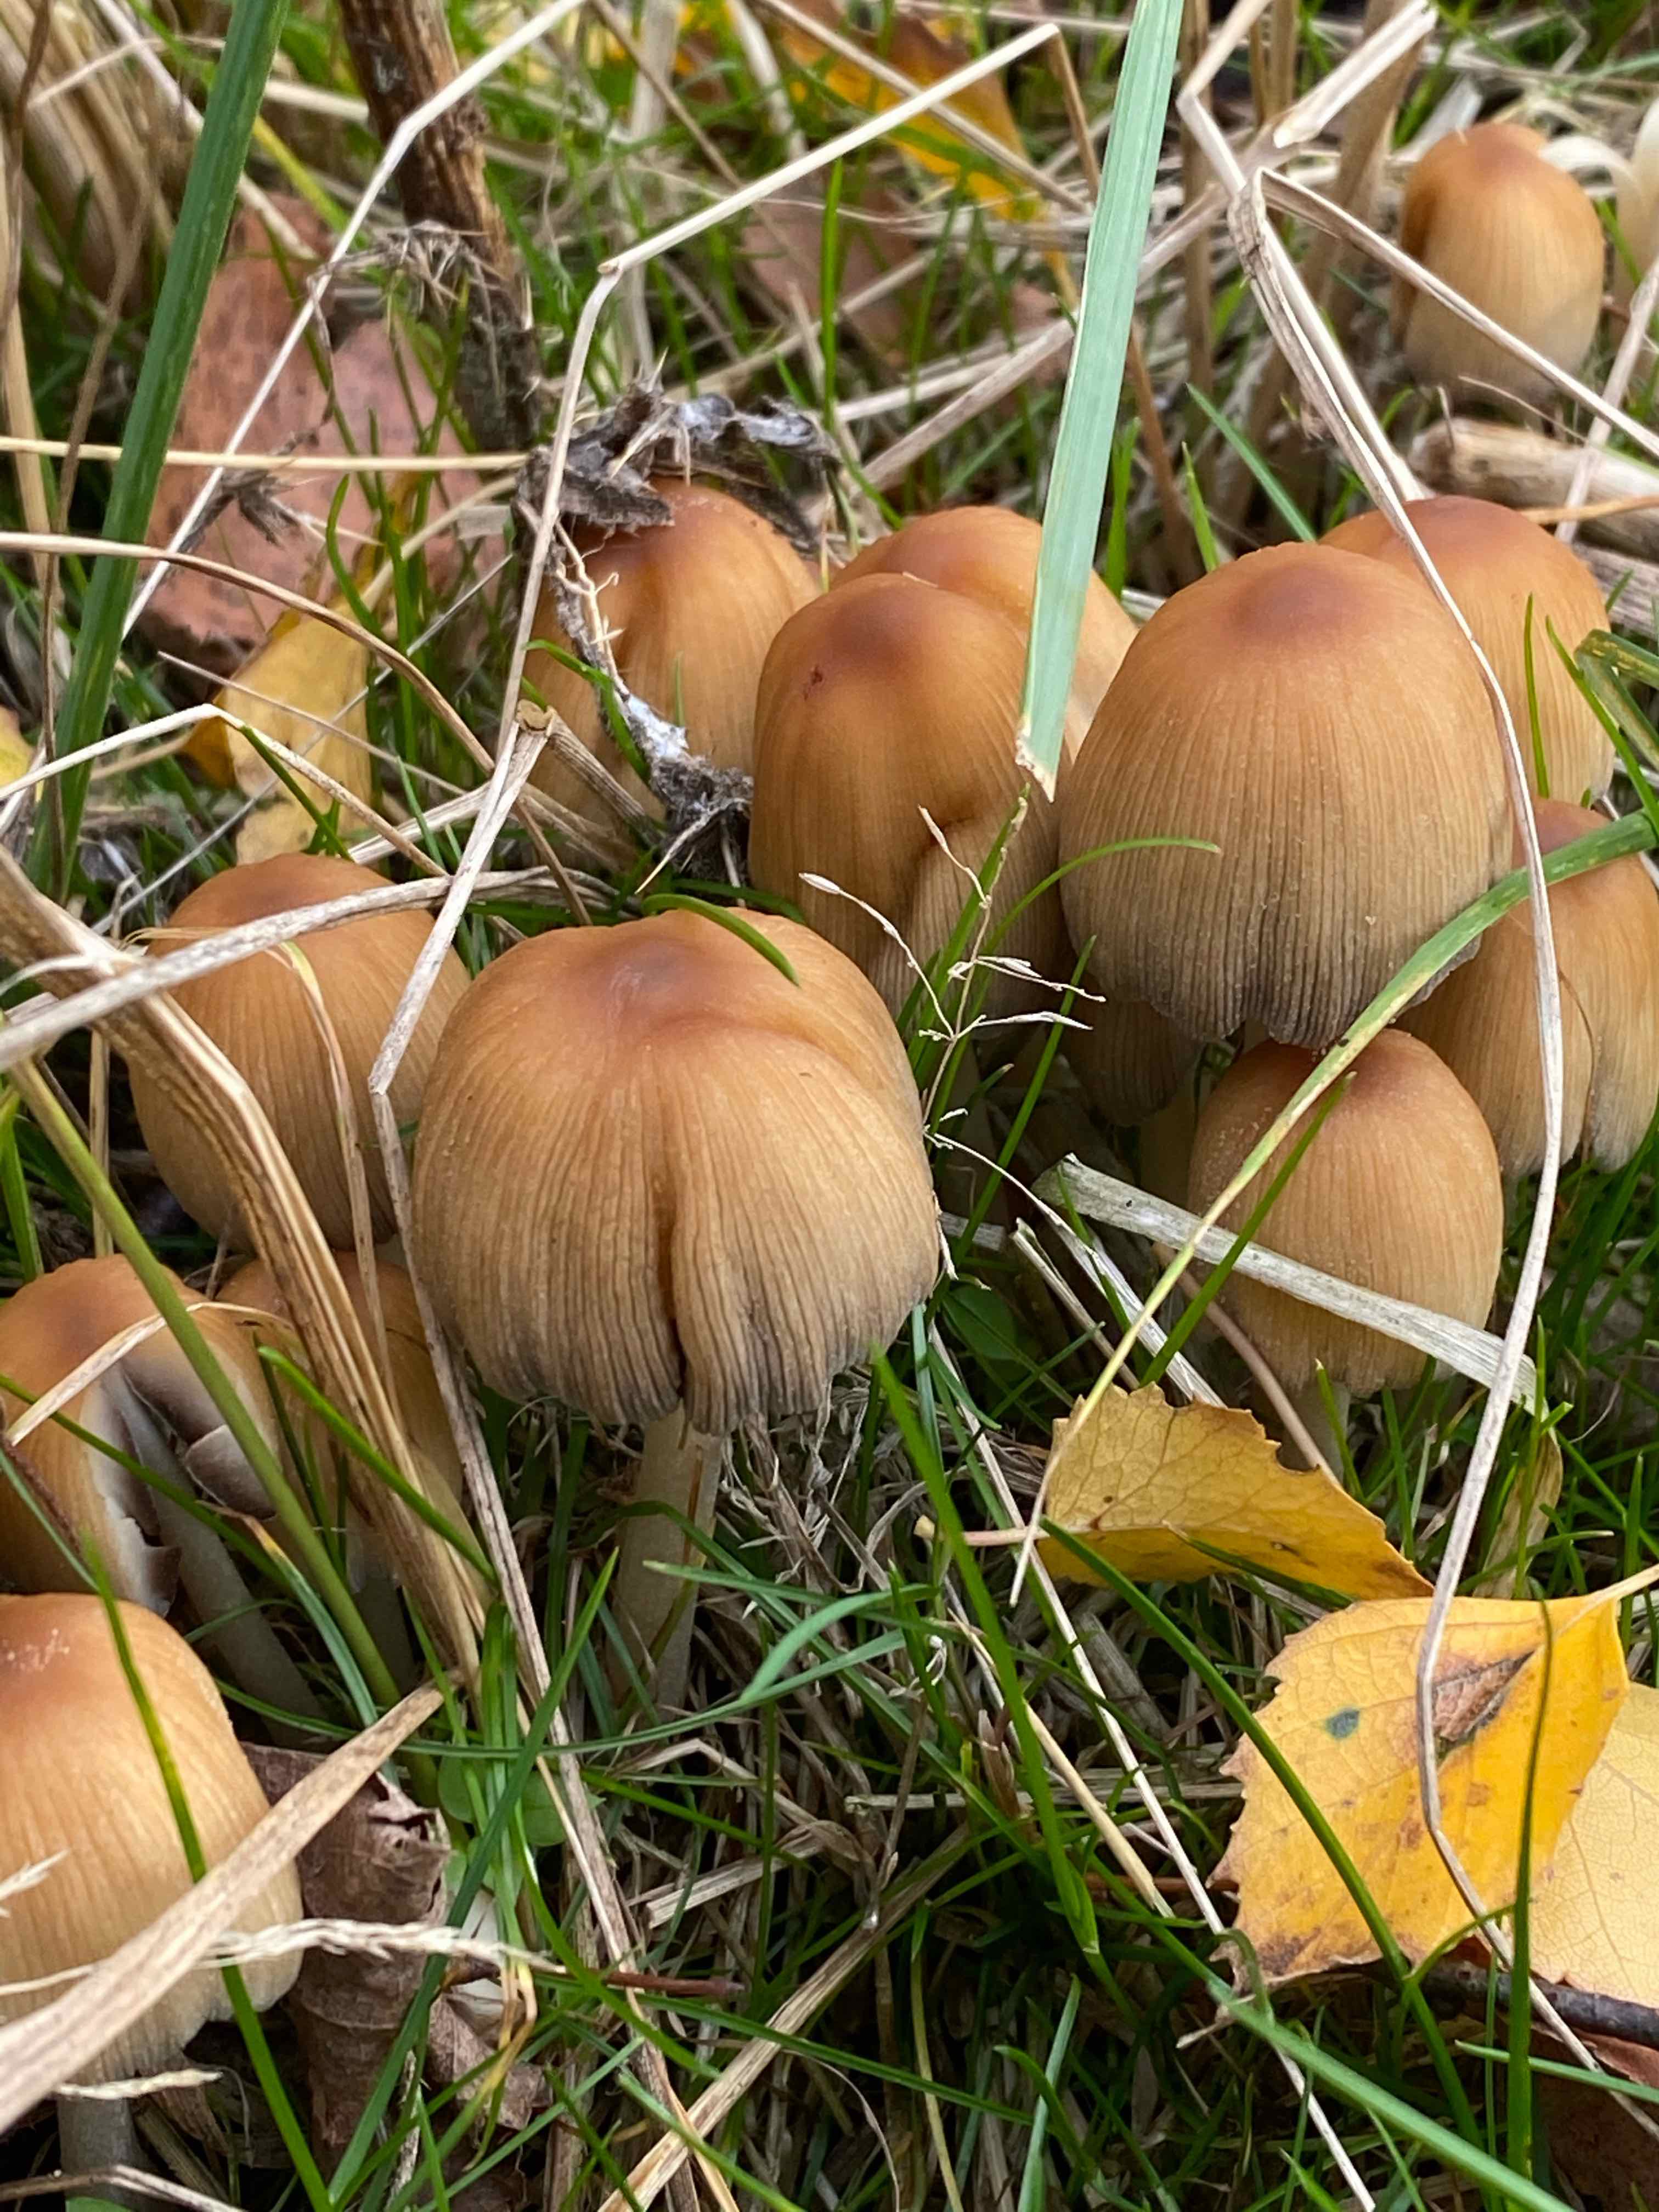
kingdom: Fungi
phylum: Basidiomycota
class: Agaricomycetes
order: Agaricales
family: Psathyrellaceae
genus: Coprinellus
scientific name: Coprinellus micaceus
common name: glimmer-blækhat
